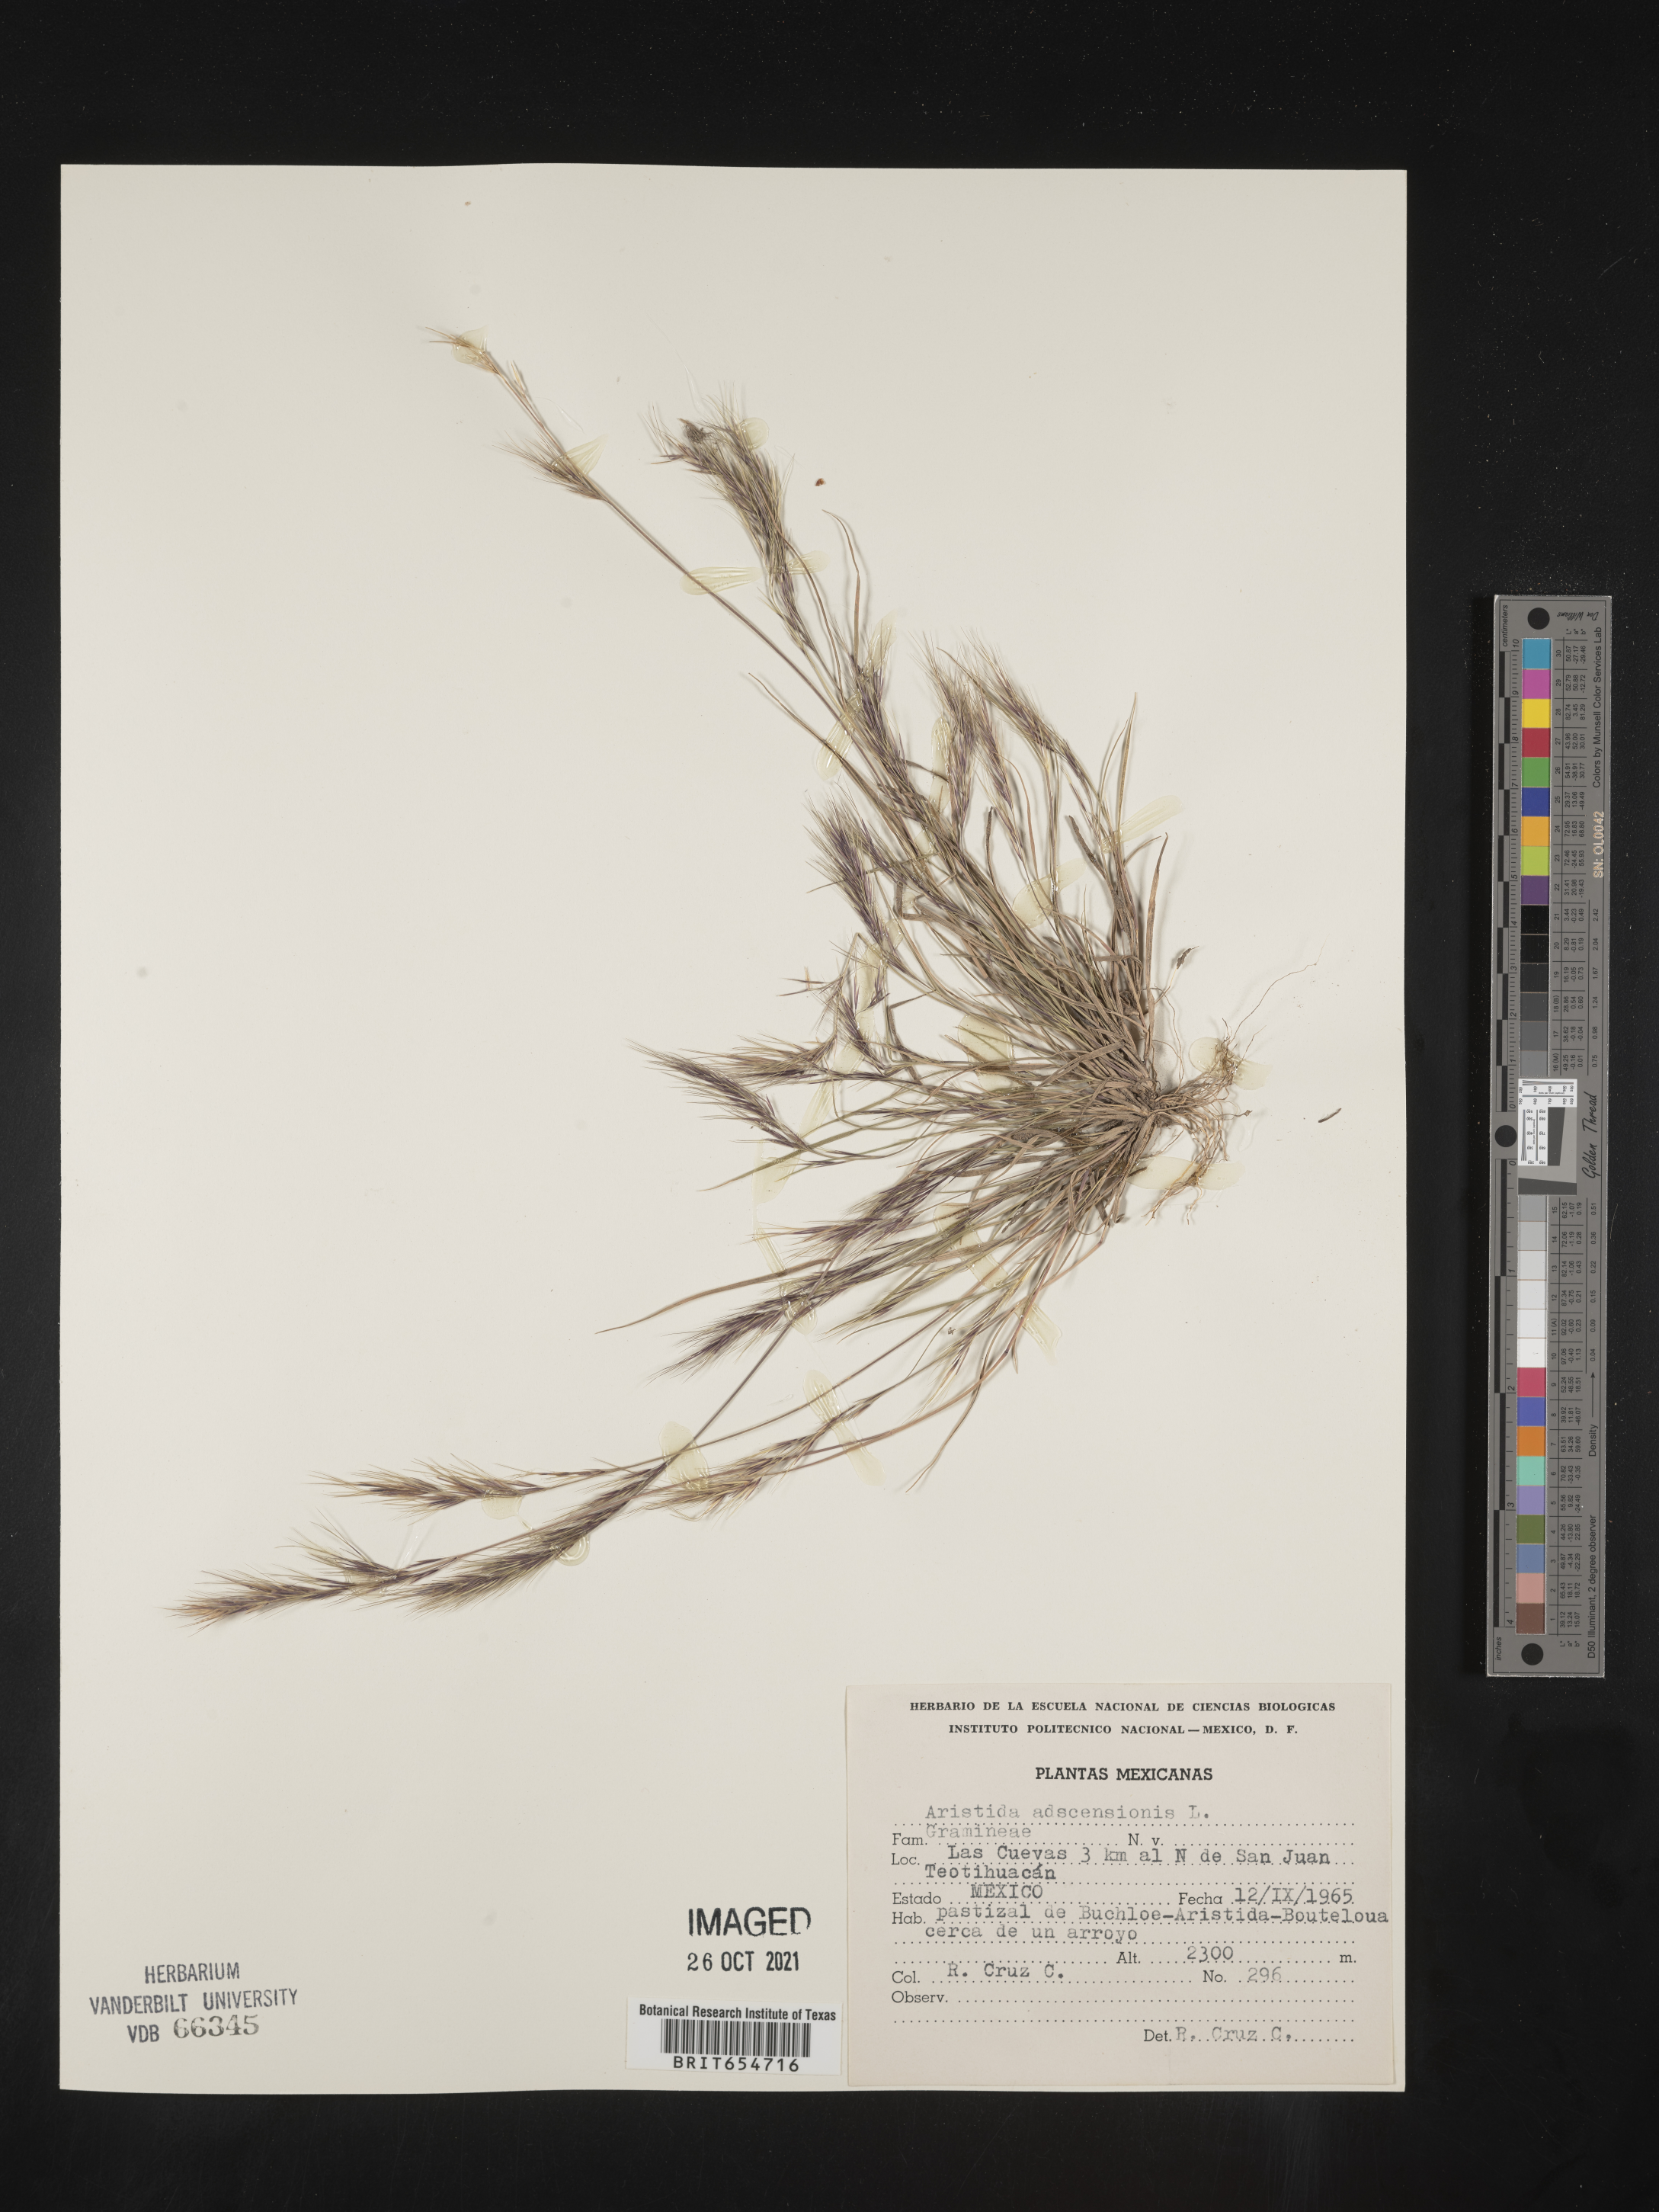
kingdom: Plantae
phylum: Tracheophyta
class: Liliopsida
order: Poales
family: Poaceae
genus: Aristida
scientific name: Aristida
